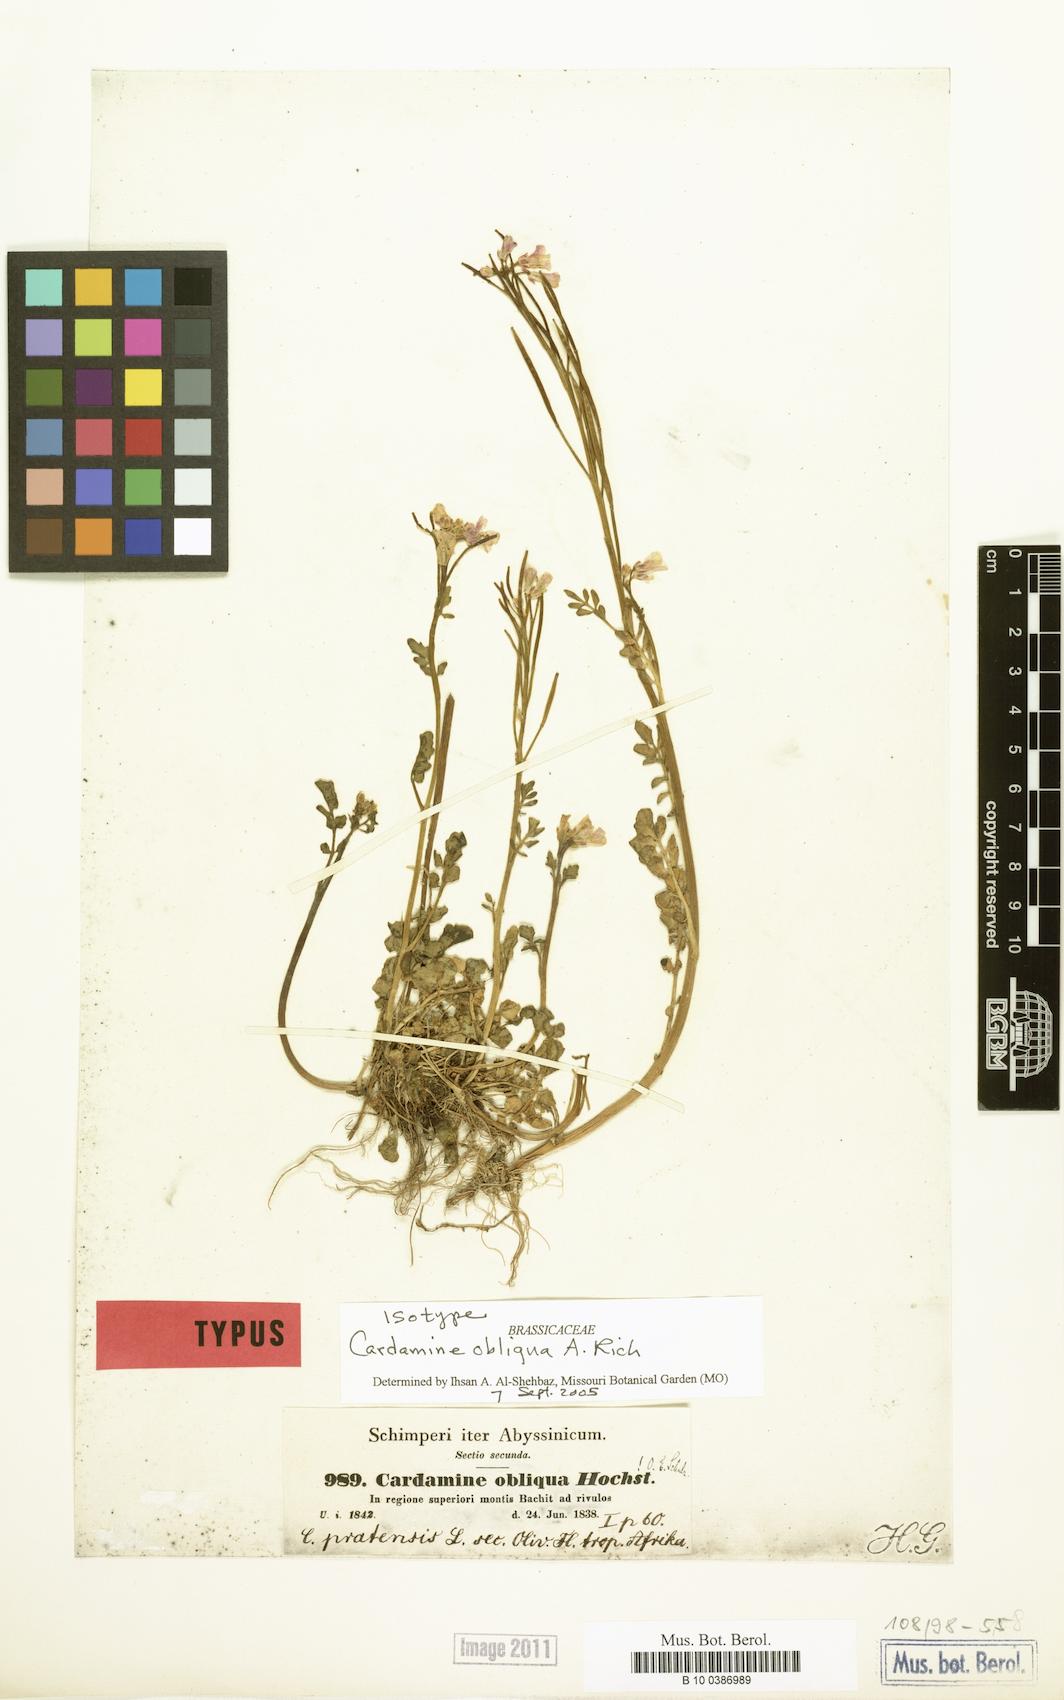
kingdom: Plantae
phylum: Tracheophyta
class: Magnoliopsida
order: Brassicales
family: Brassicaceae
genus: Cardamine
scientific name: Cardamine obliqua
